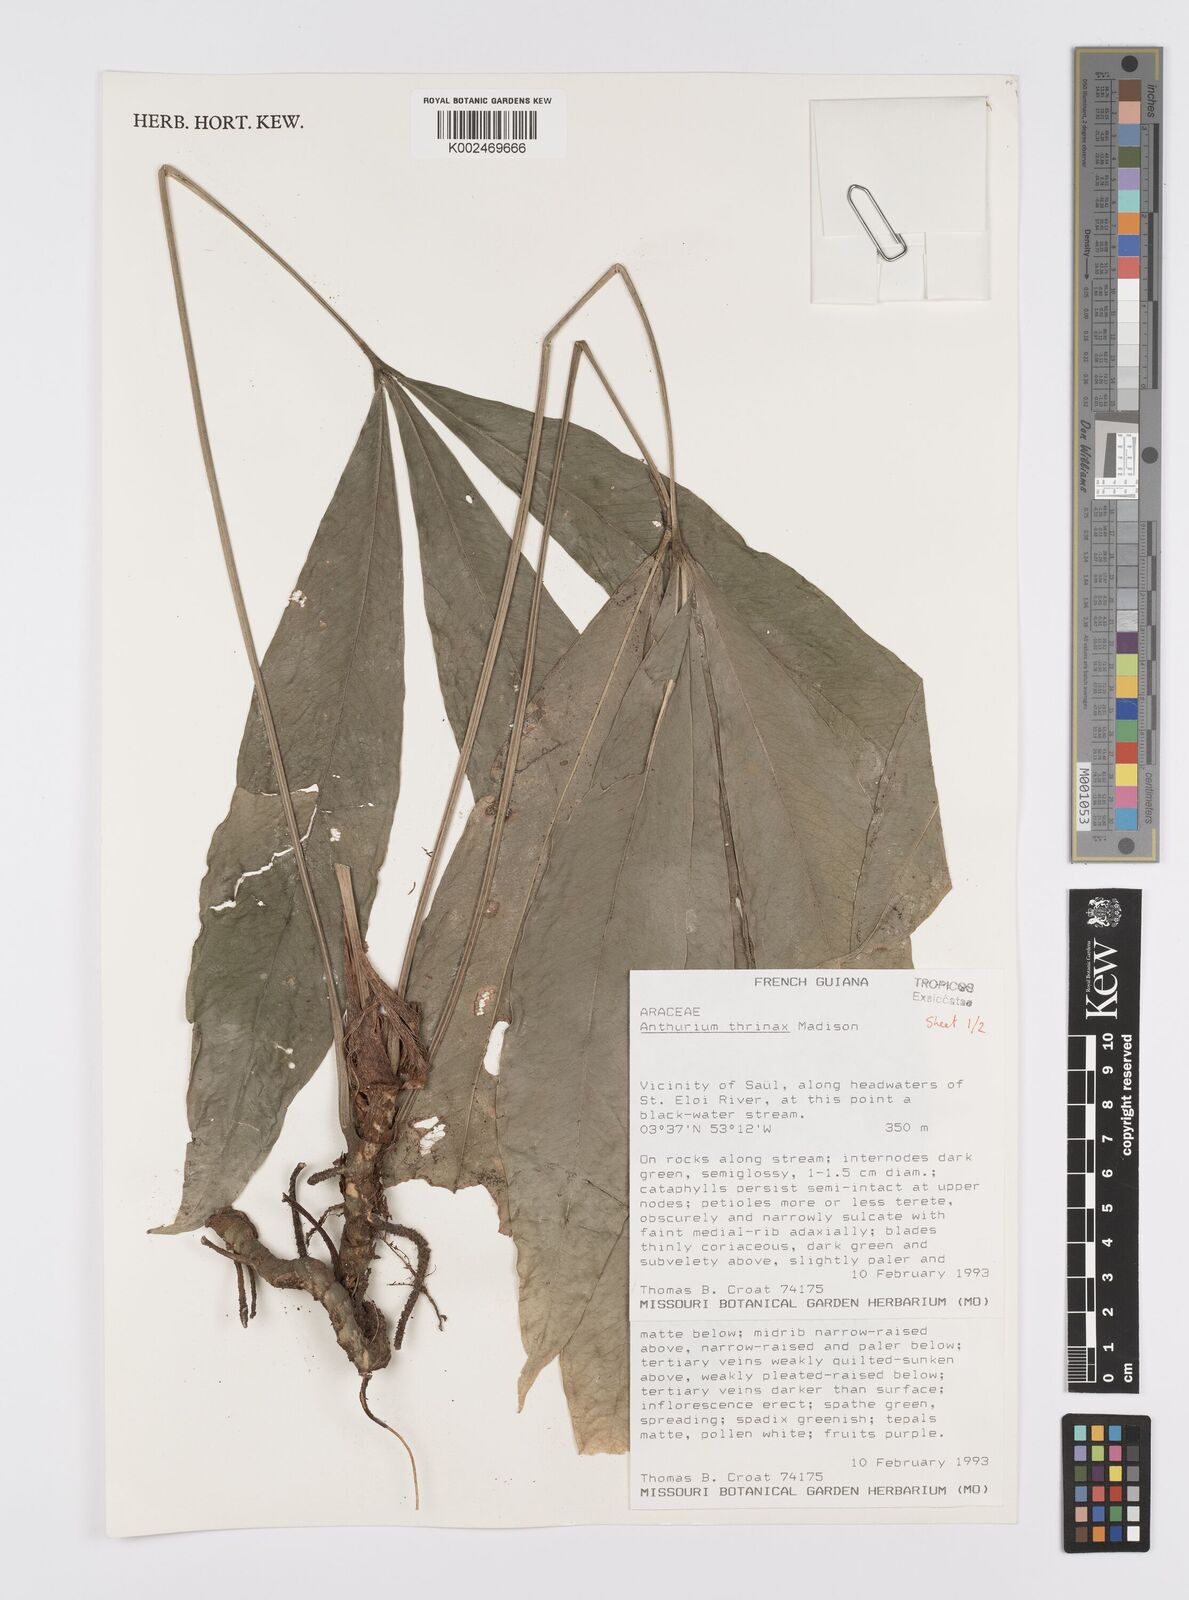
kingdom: Plantae
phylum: Tracheophyta
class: Liliopsida
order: Alismatales
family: Araceae
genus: Anthurium
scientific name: Anthurium thrinax
